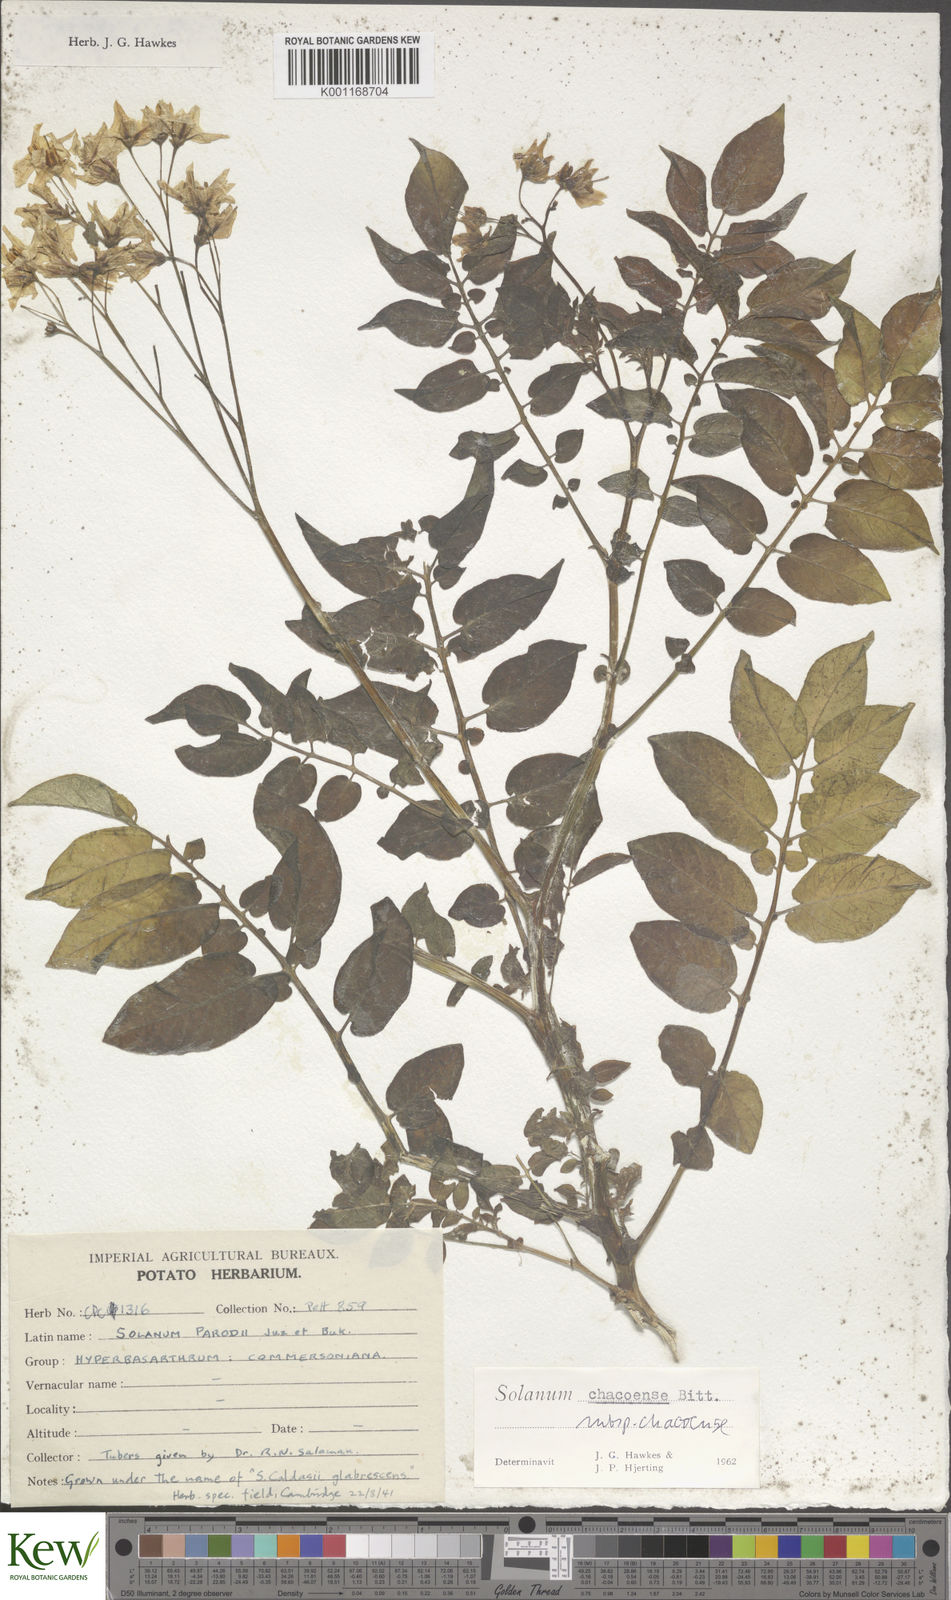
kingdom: Plantae
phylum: Tracheophyta
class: Magnoliopsida
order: Solanales
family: Solanaceae
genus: Solanum
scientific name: Solanum chacoense
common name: Chaco potato
